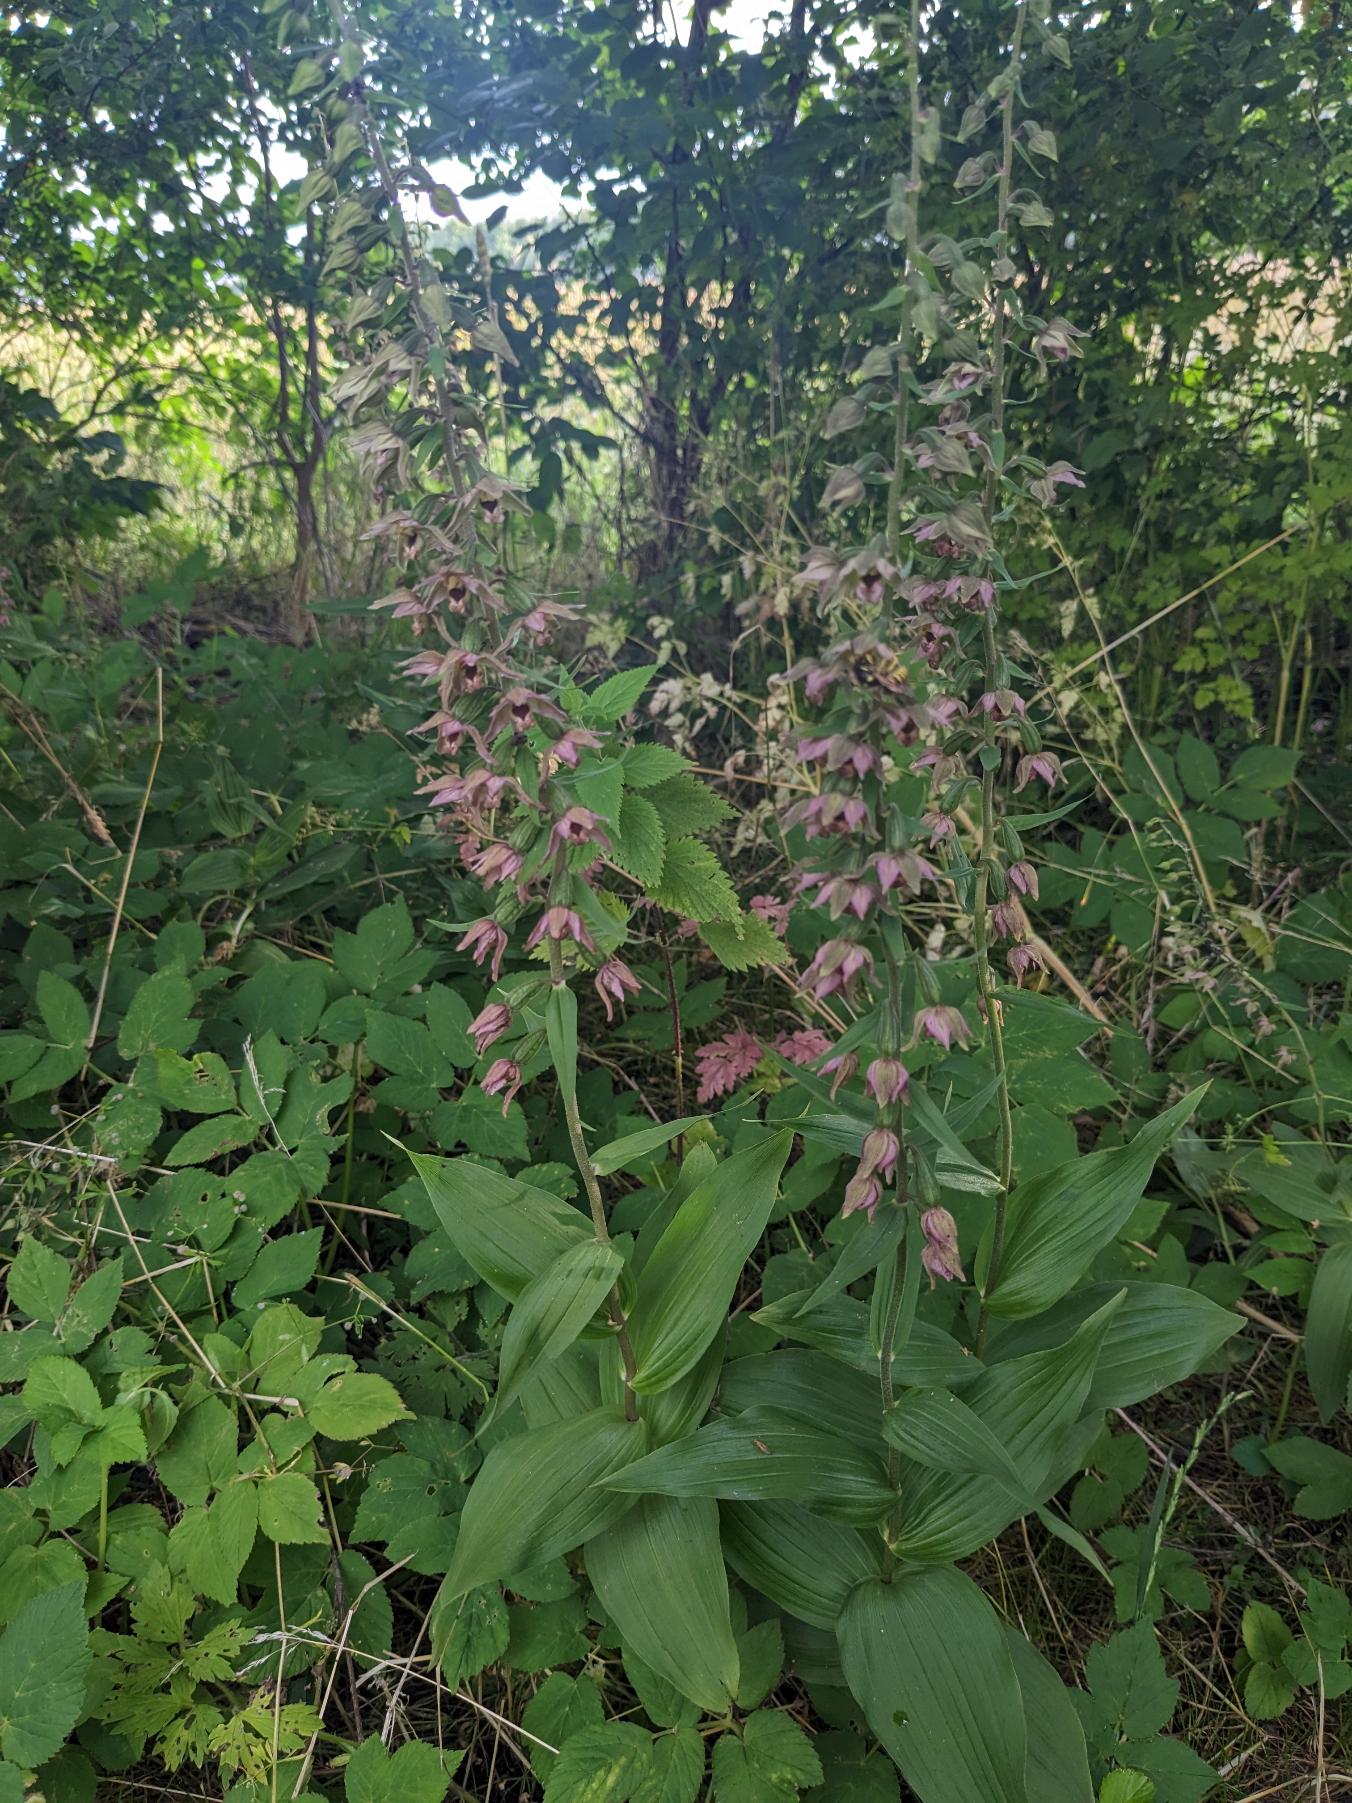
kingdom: Plantae
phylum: Tracheophyta
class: Liliopsida
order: Asparagales
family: Orchidaceae
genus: Epipactis
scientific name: Epipactis helleborine
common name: Skov-hullæbe
